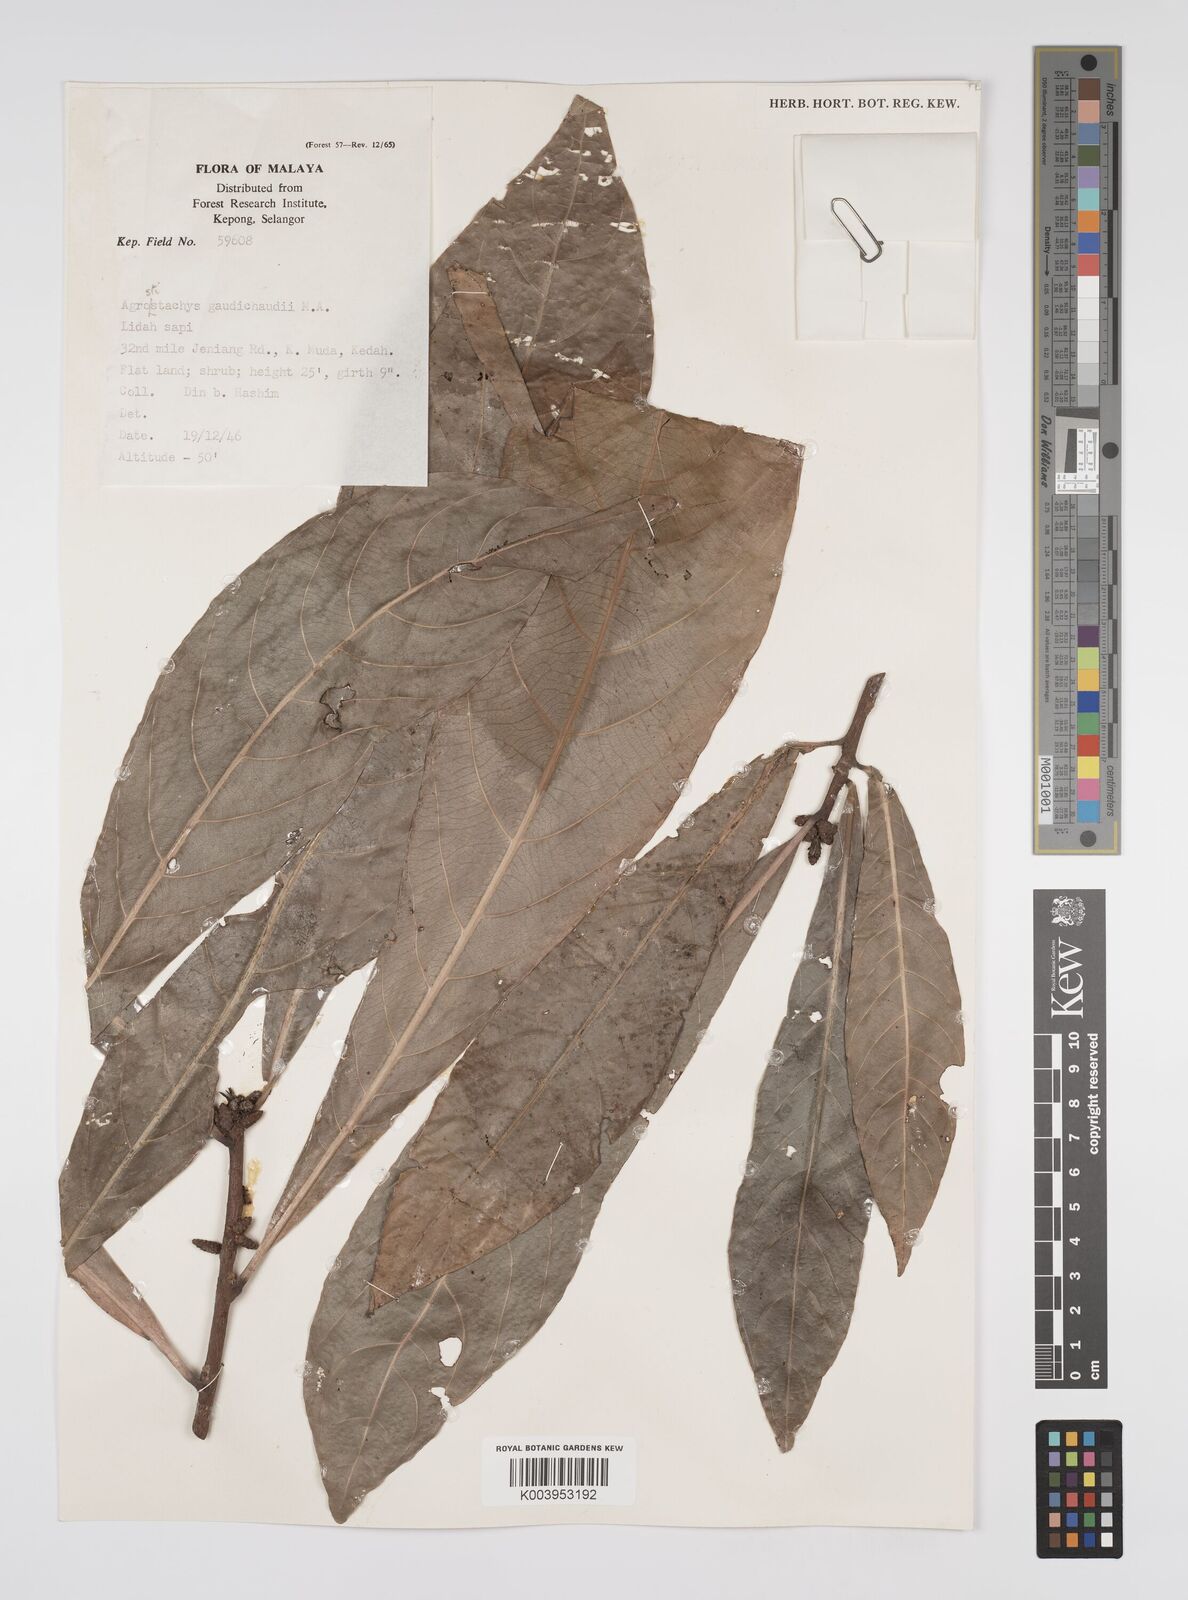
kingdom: Plantae
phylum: Tracheophyta
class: Magnoliopsida
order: Malpighiales
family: Euphorbiaceae
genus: Agrostistachys
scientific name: Agrostistachys gaudichaudii
